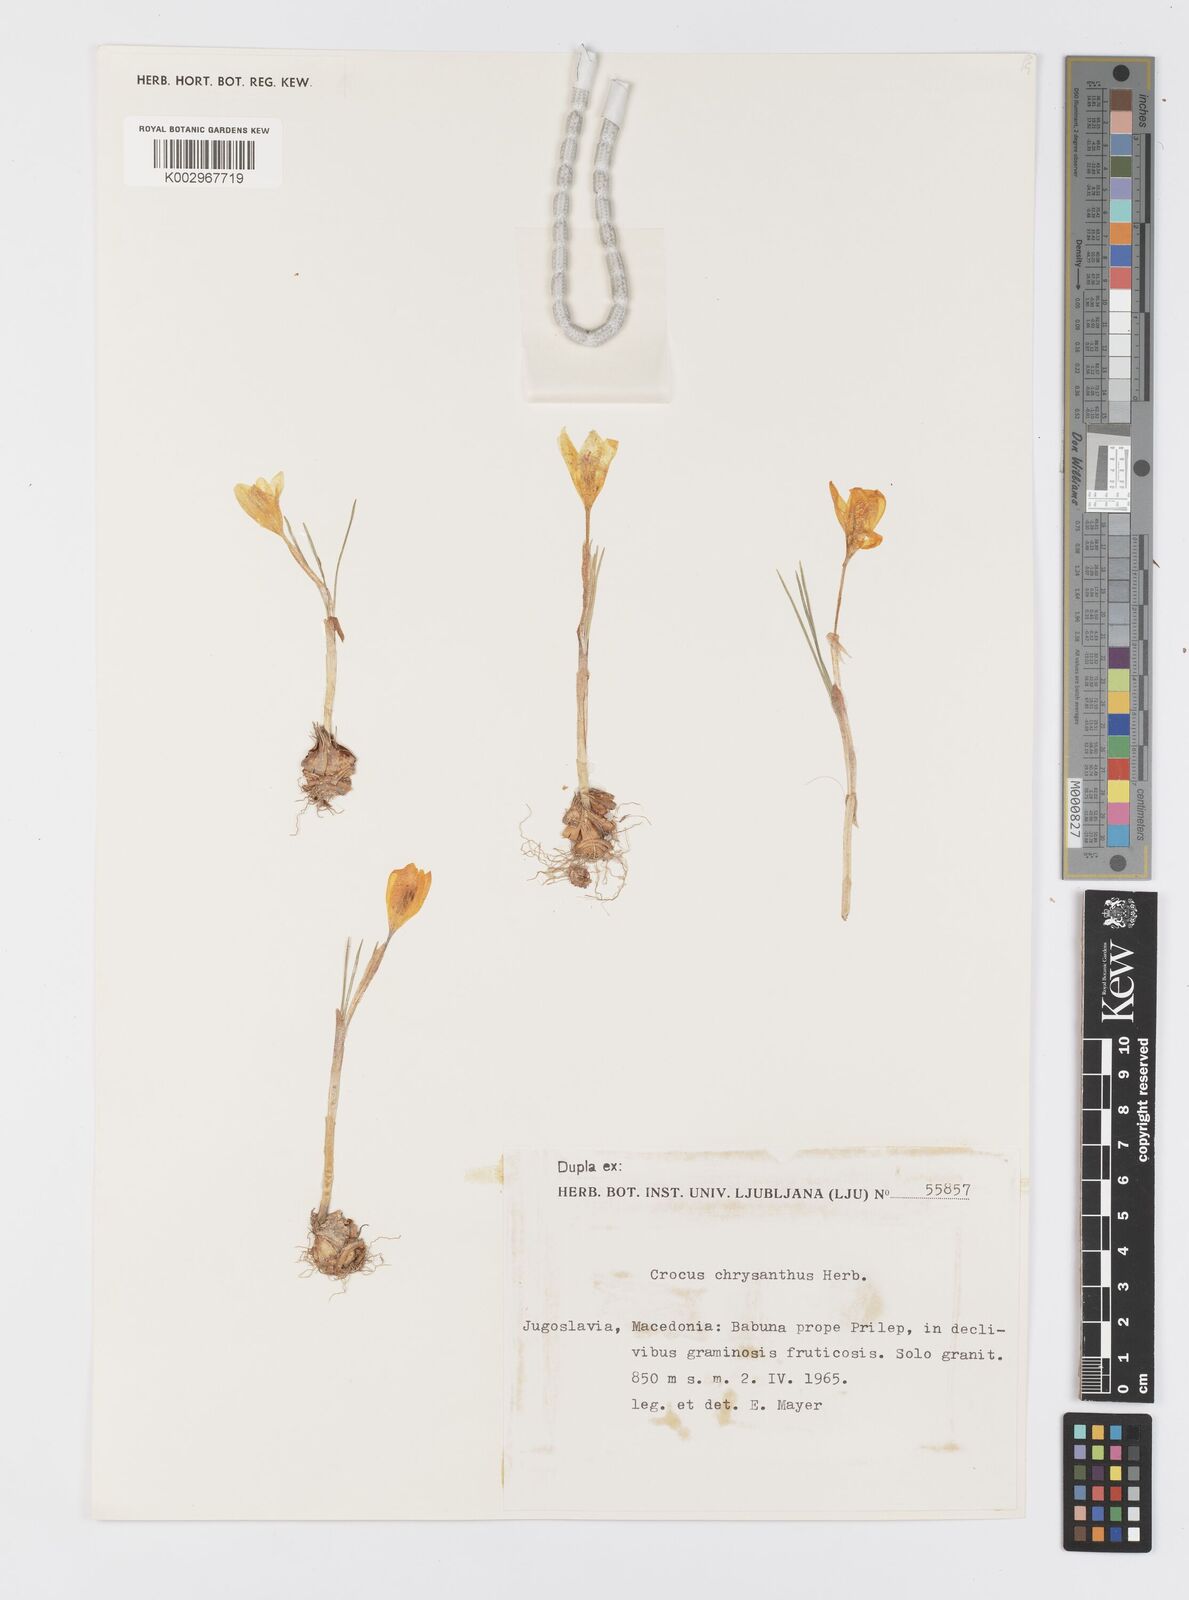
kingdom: Plantae
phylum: Tracheophyta
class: Liliopsida
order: Asparagales
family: Iridaceae
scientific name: Iridaceae
